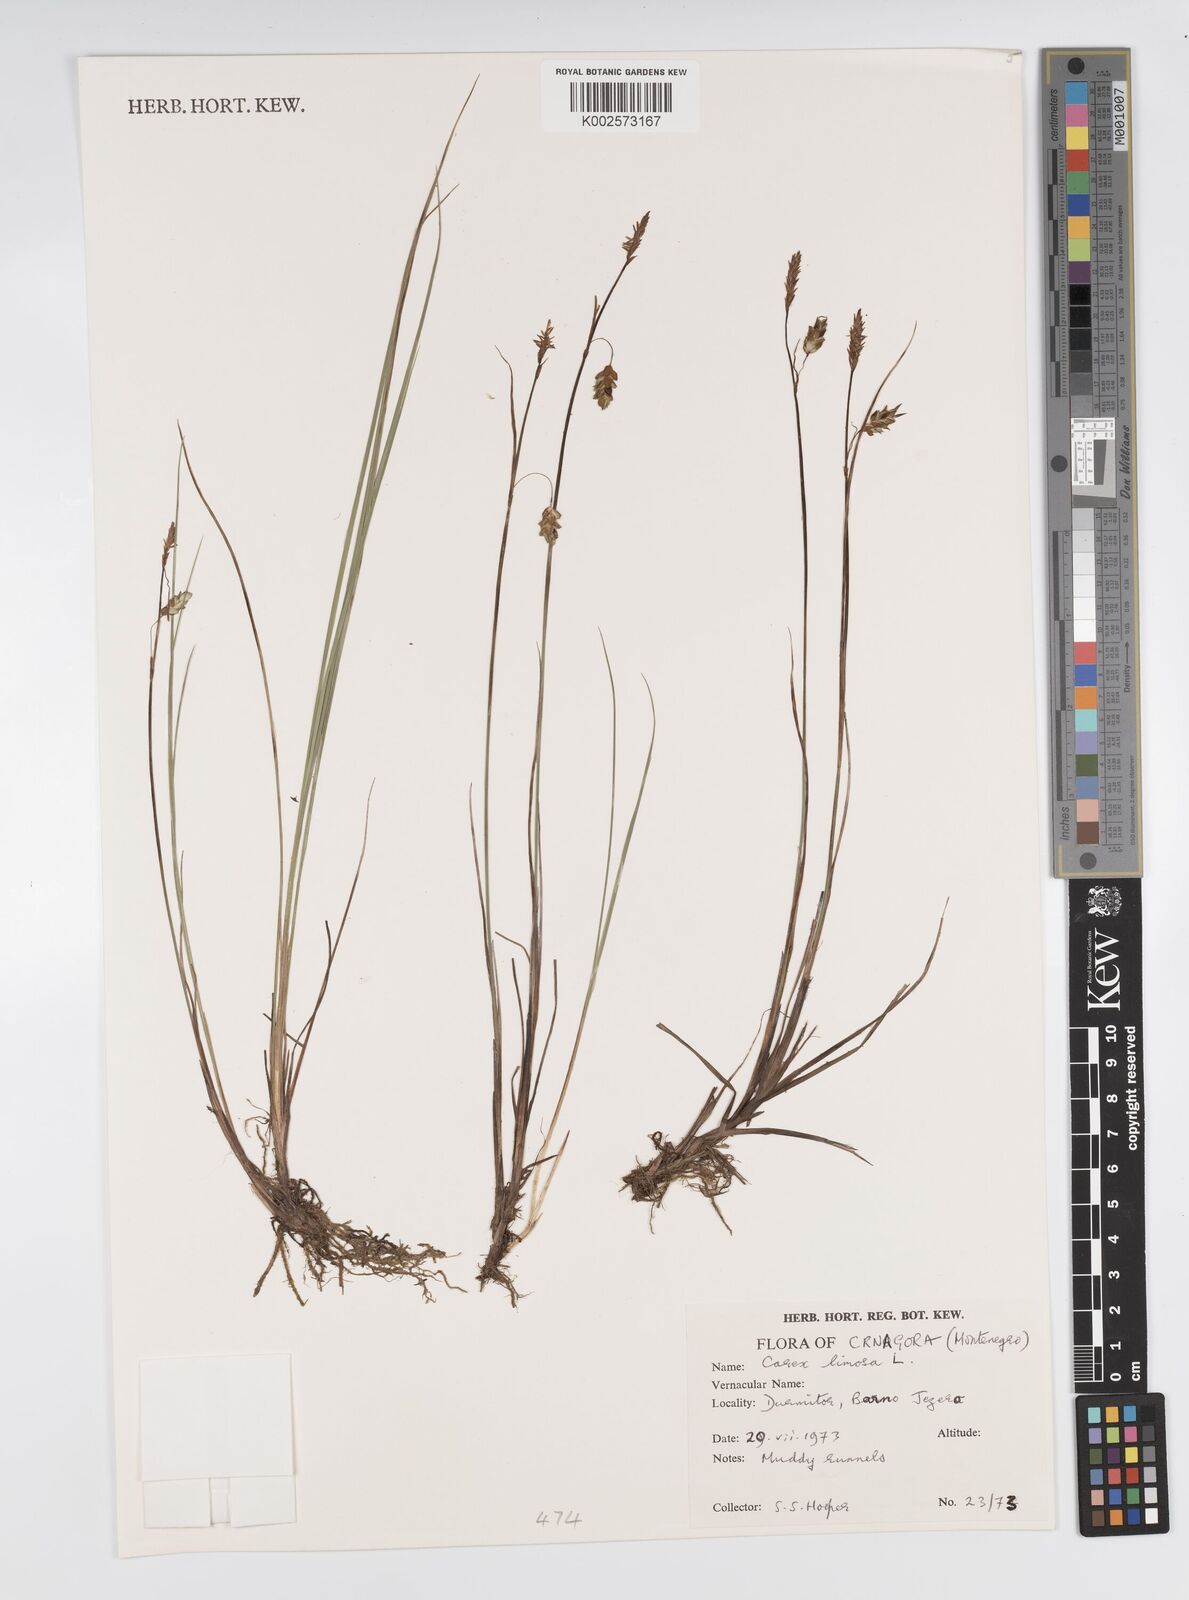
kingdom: Plantae
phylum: Tracheophyta
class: Liliopsida
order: Poales
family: Cyperaceae
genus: Carex
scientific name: Carex limosa
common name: Bog sedge
